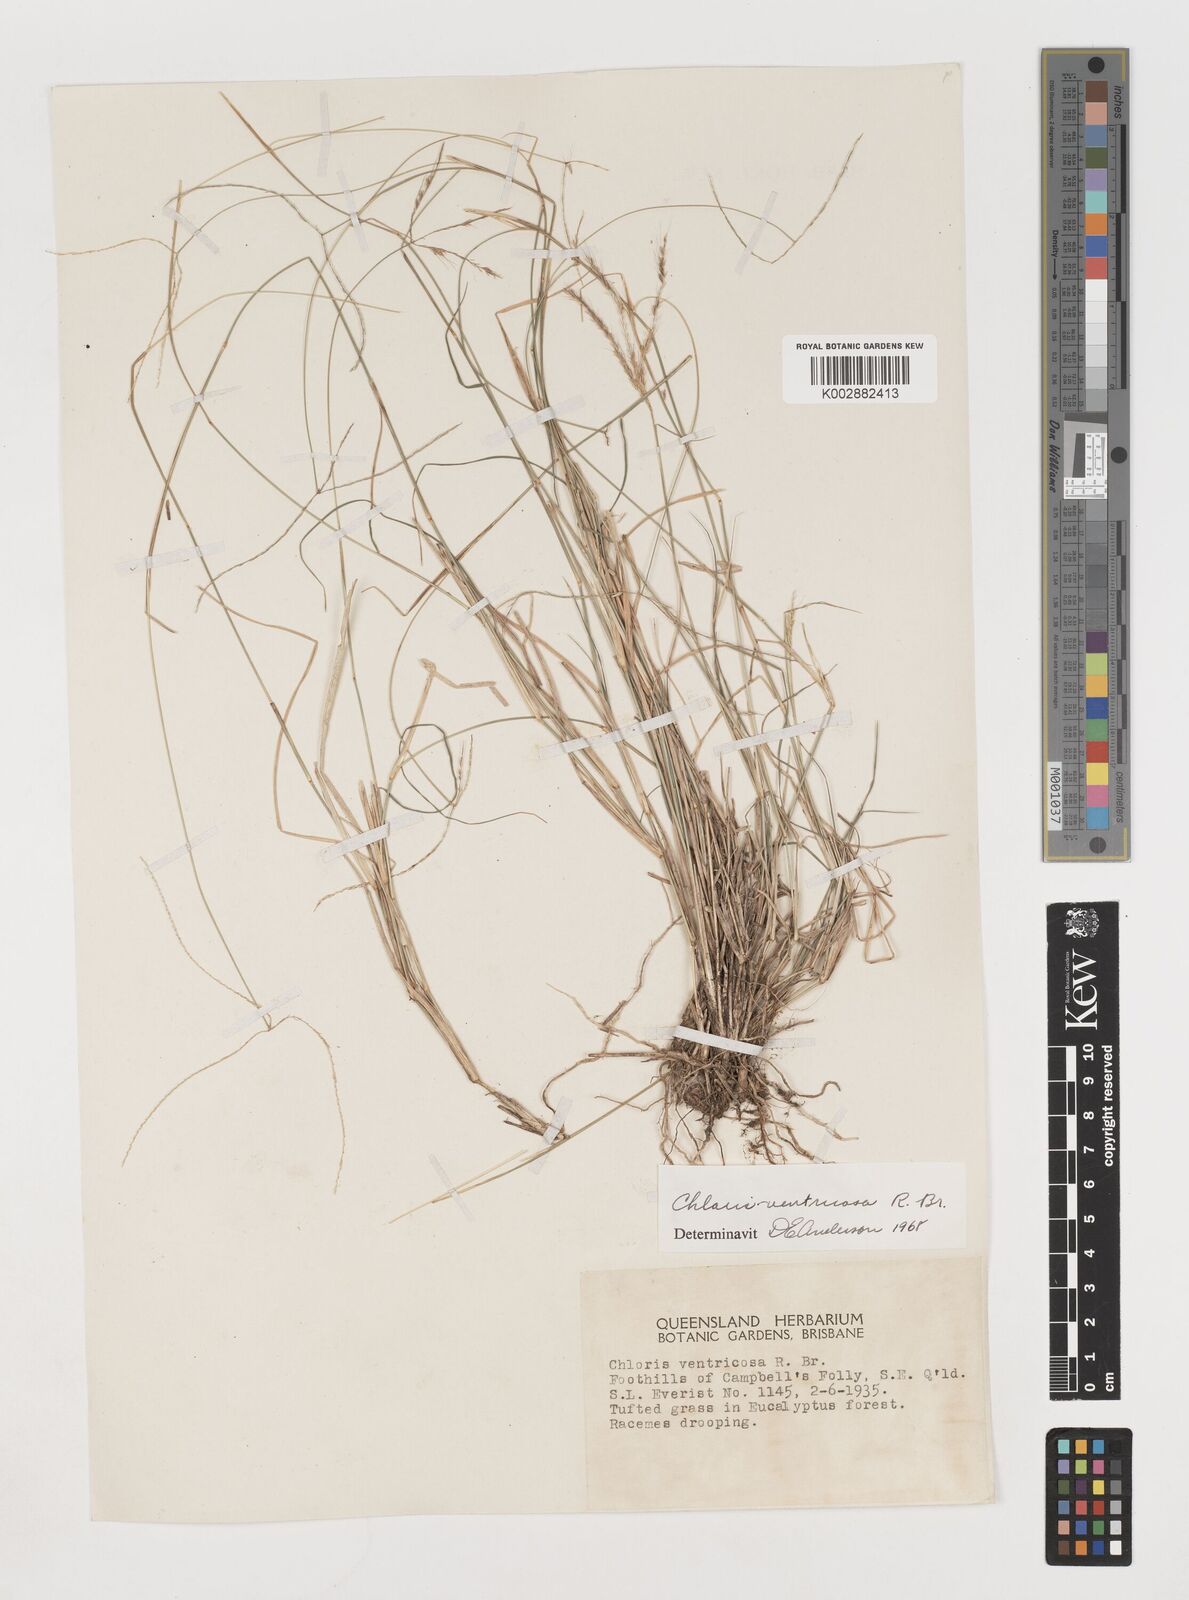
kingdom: Plantae
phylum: Tracheophyta
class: Liliopsida
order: Poales
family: Poaceae
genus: Chloris
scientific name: Chloris ventricosa
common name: Australian windmill grass
